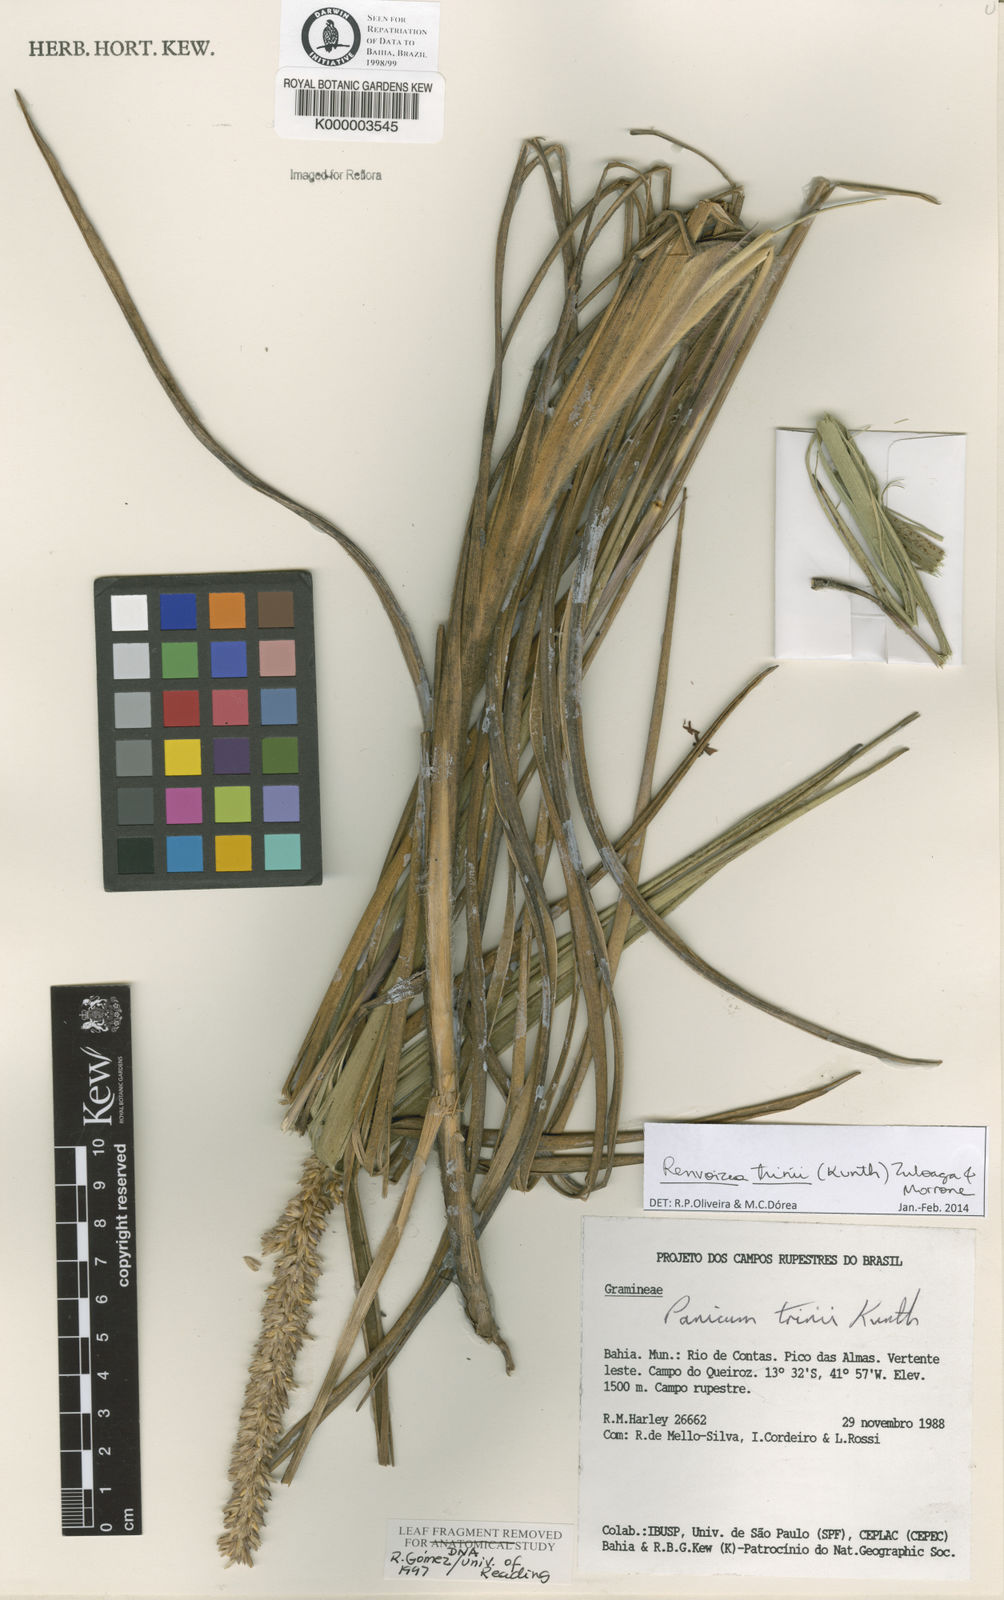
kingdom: Plantae
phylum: Tracheophyta
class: Liliopsida
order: Poales
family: Poaceae
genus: Renvoizea
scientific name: Renvoizea trinii
